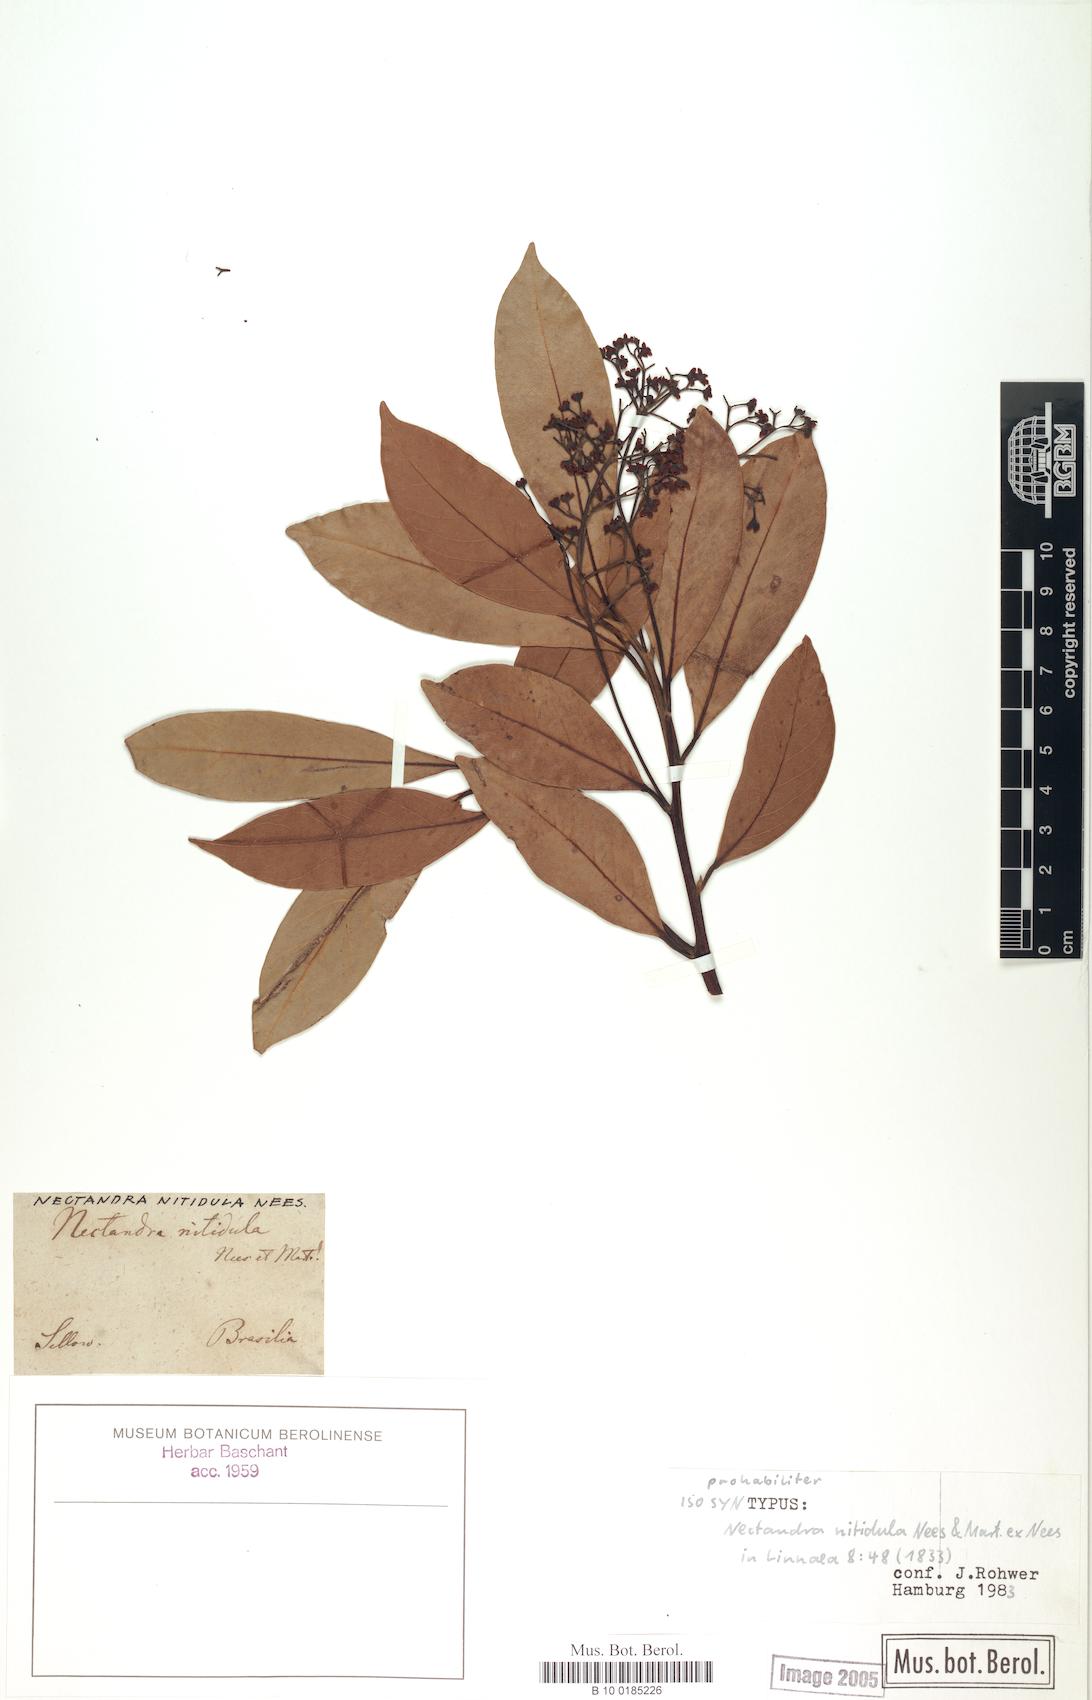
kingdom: Plantae
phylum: Tracheophyta
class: Magnoliopsida
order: Laurales
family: Lauraceae
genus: Nectandra
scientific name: Nectandra nitidula
